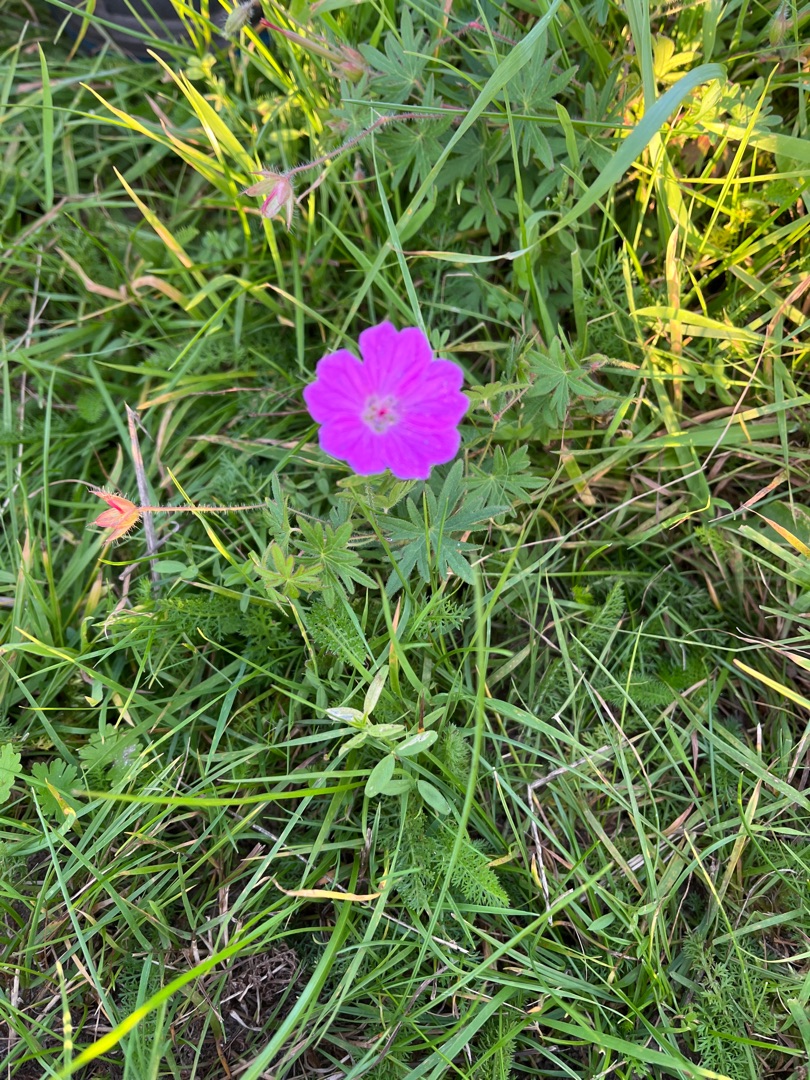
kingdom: Plantae
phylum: Tracheophyta
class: Magnoliopsida
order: Geraniales
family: Geraniaceae
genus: Geranium
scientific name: Geranium sanguineum
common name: Blodrød storkenæb
